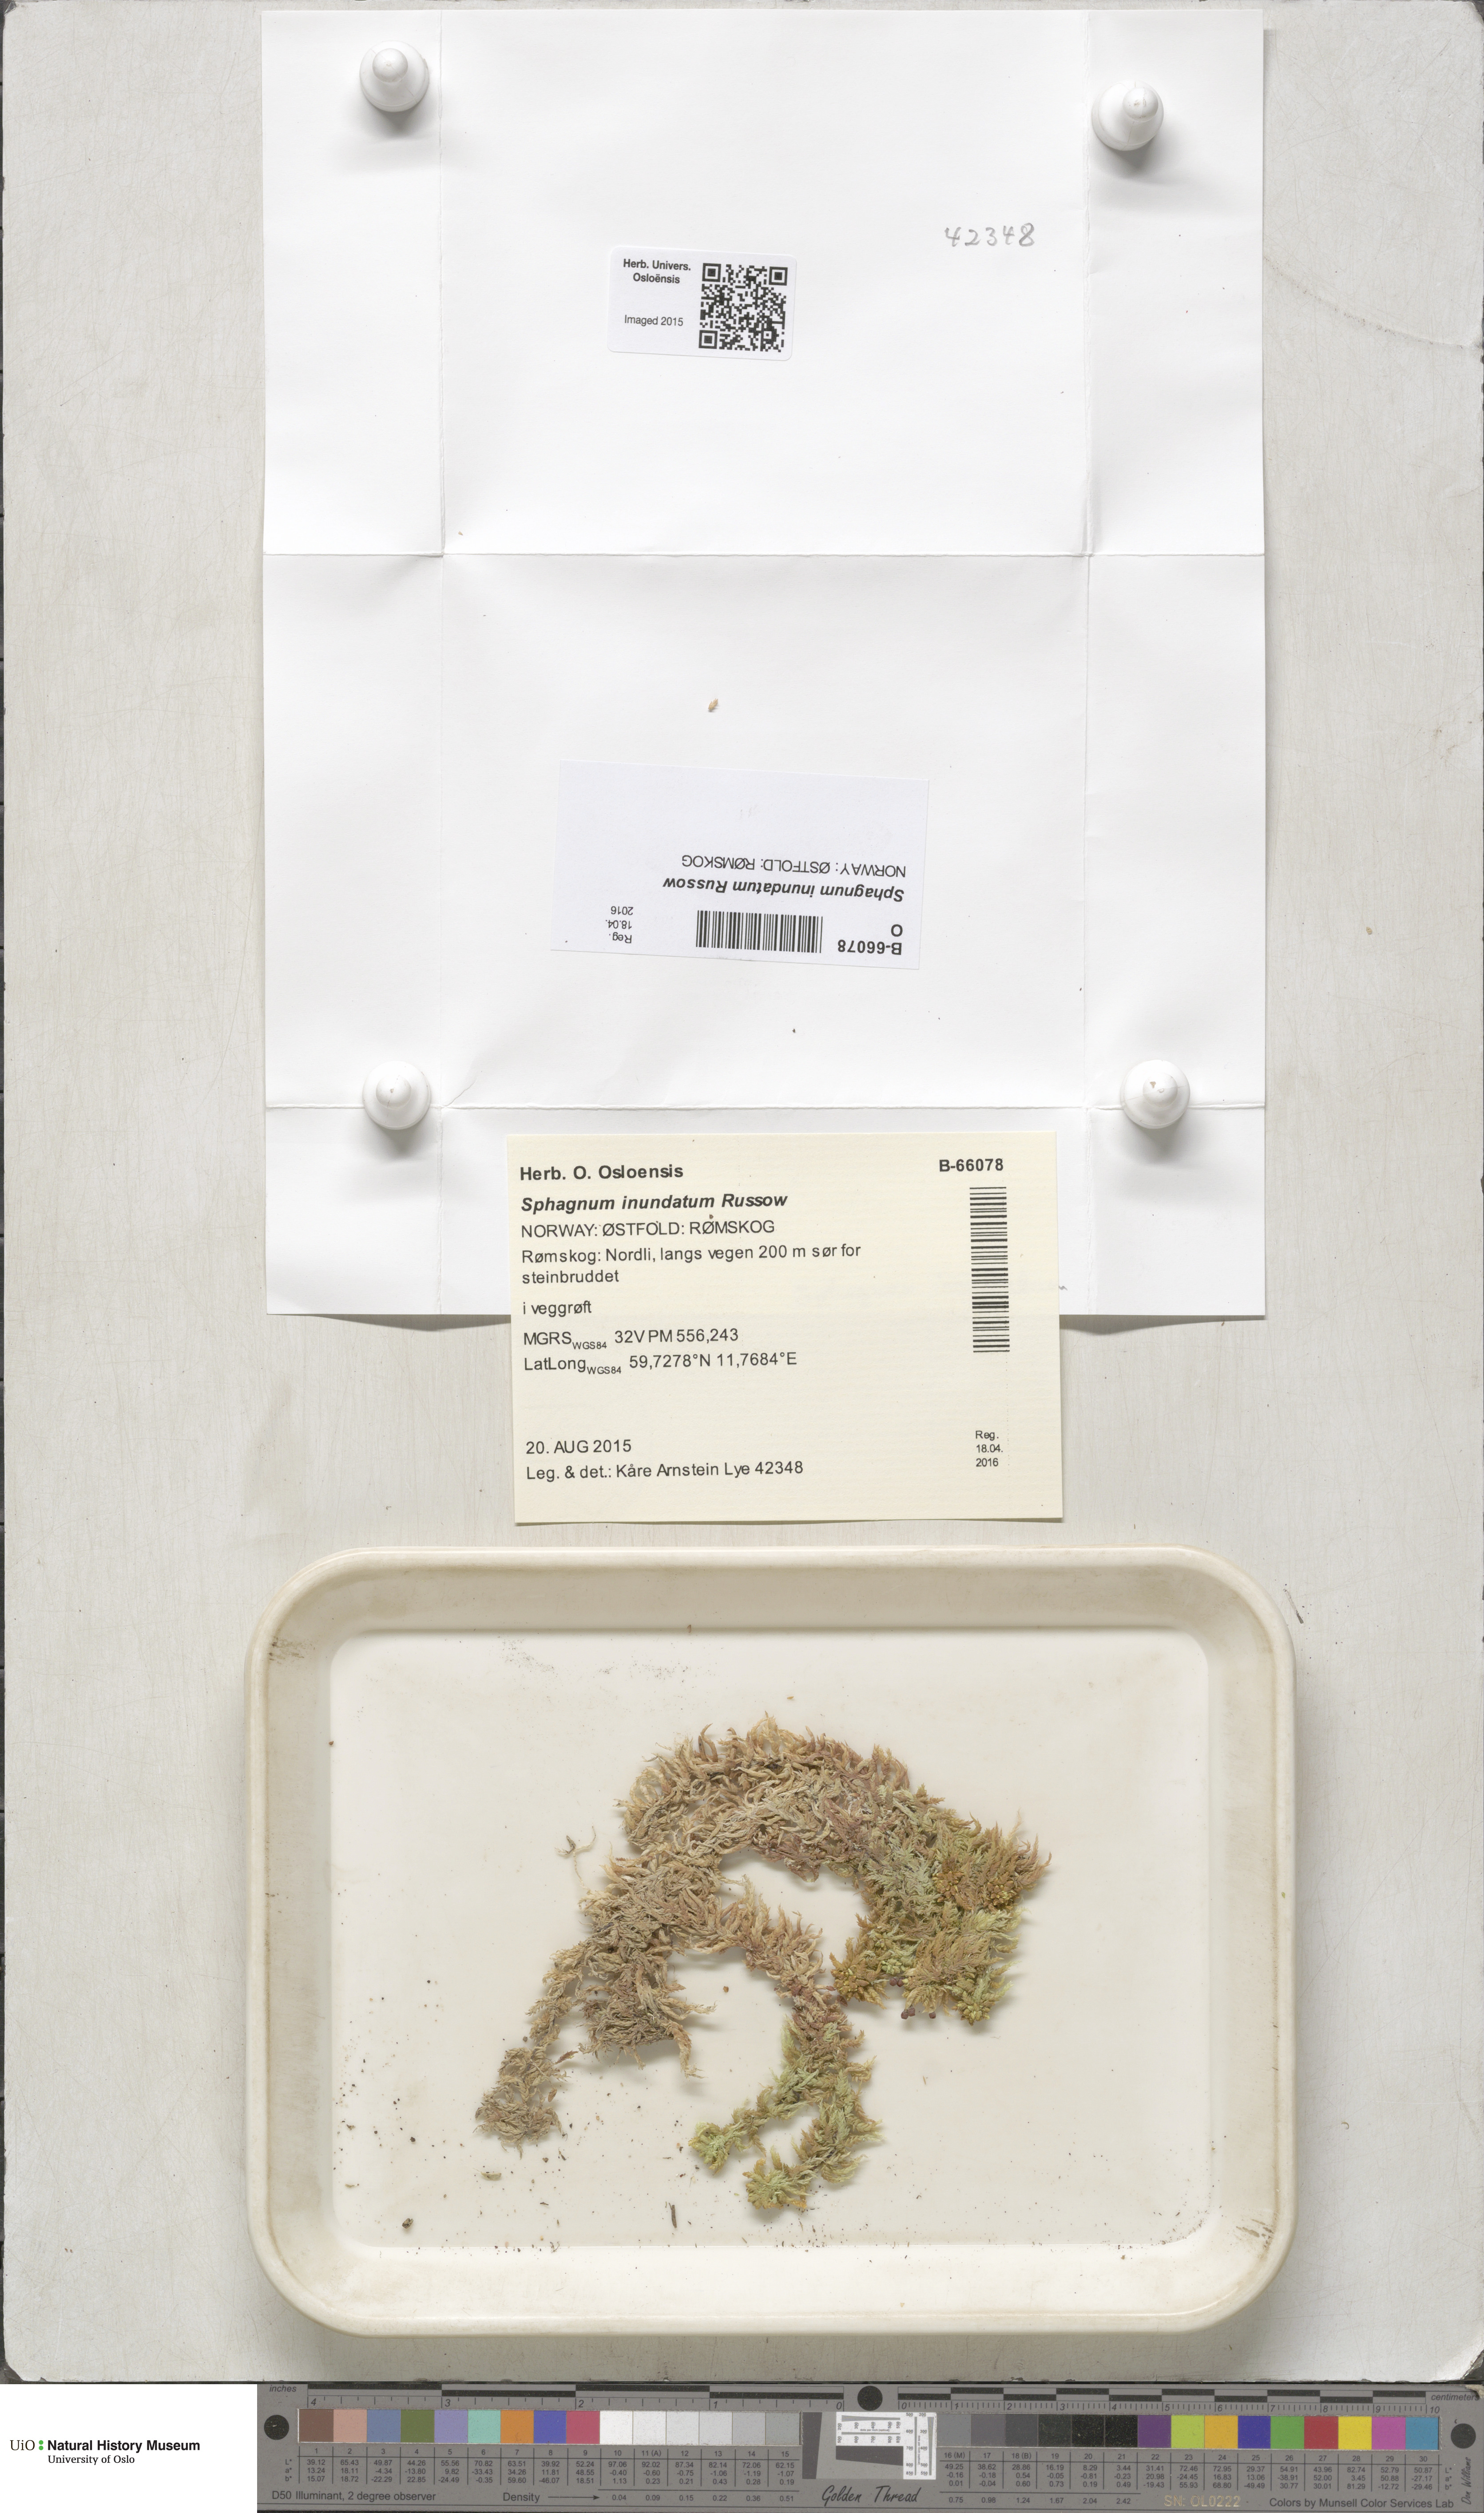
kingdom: Plantae
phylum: Bryophyta
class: Sphagnopsida
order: Sphagnales
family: Sphagnaceae
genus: Sphagnum
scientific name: Sphagnum inundatum
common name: Lesser cow-horn bog-moss
